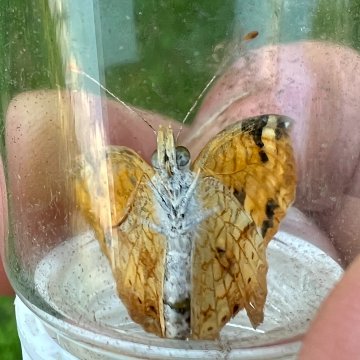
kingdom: Animalia
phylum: Arthropoda
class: Insecta
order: Lepidoptera
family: Nymphalidae
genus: Phyciodes
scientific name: Phyciodes
